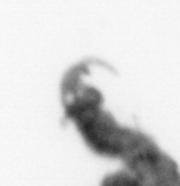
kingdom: Animalia
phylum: Annelida
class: Polychaeta
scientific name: Polychaeta
